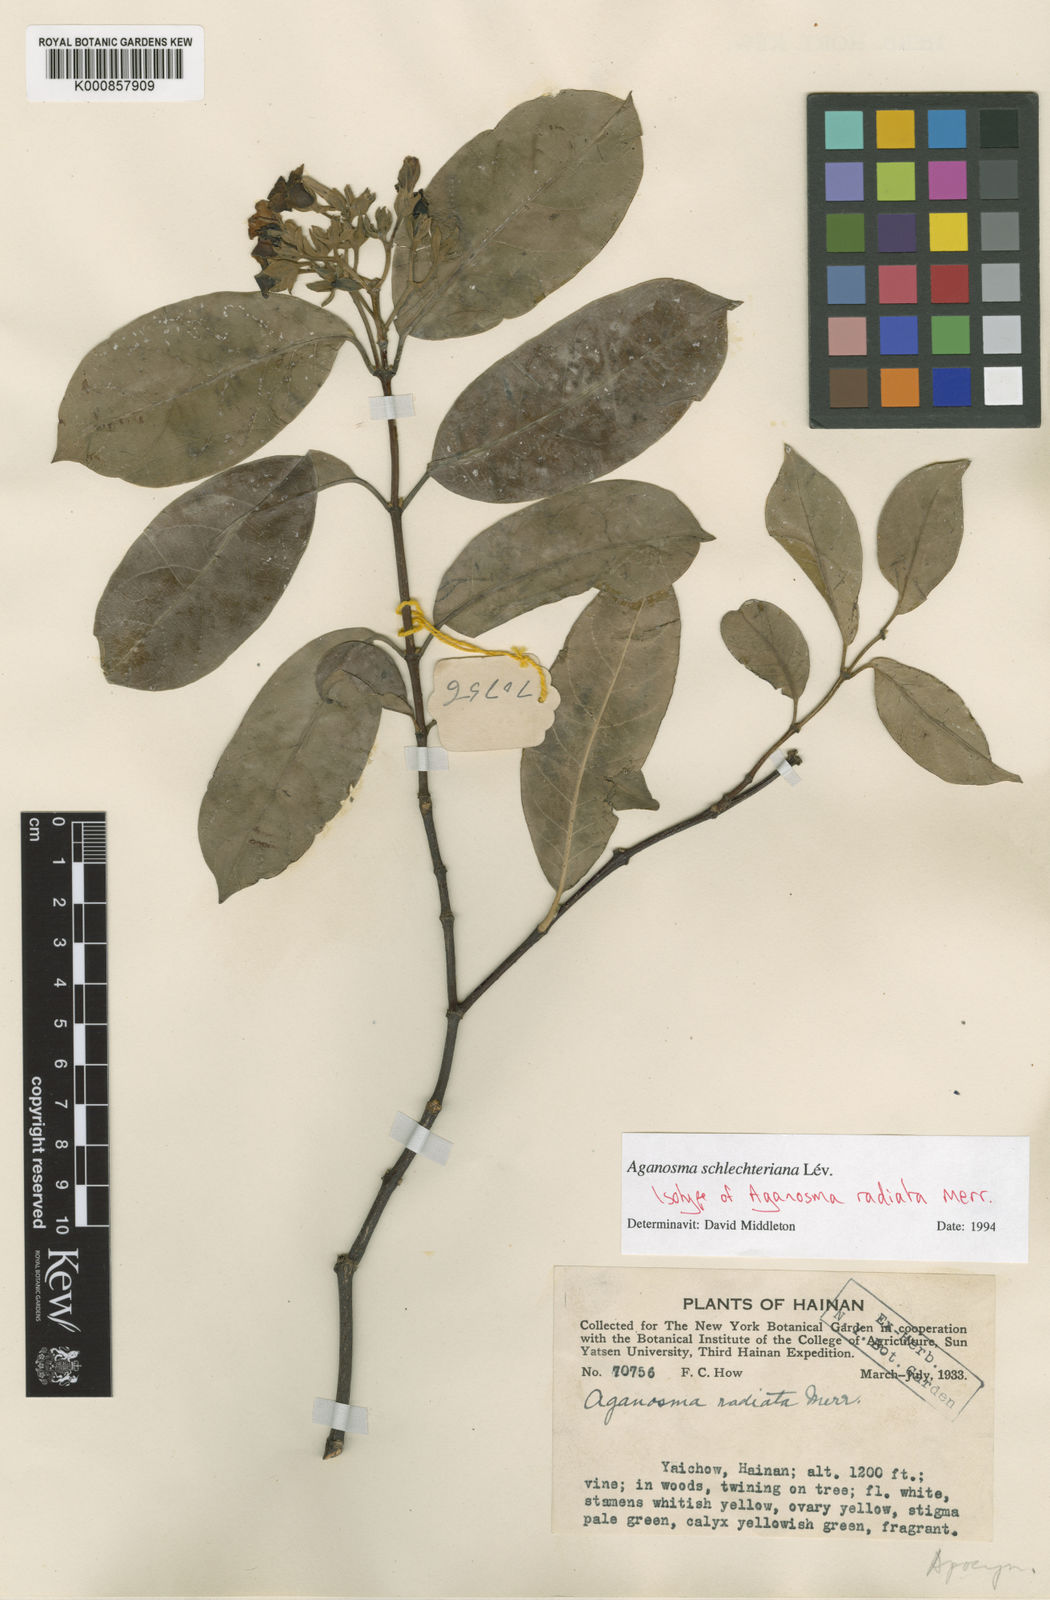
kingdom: Plantae
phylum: Tracheophyta
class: Magnoliopsida
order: Gentianales
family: Apocynaceae
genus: Aganosma
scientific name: Aganosma
